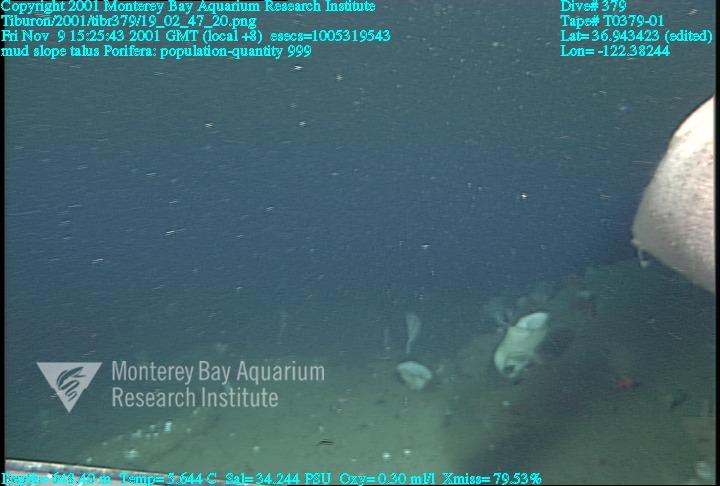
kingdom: Animalia
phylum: Porifera
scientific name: Porifera
